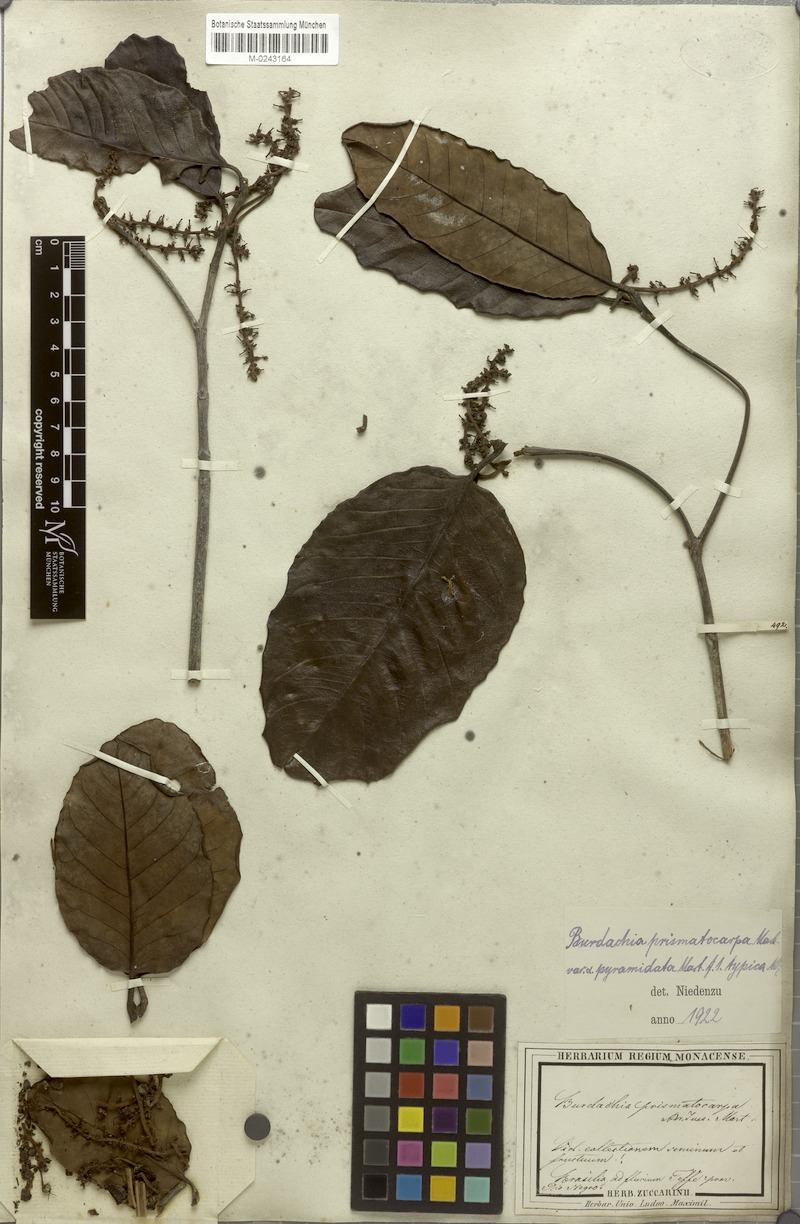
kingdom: Plantae
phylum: Tracheophyta
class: Magnoliopsida
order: Malpighiales
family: Malpighiaceae
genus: Burdachia
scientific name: Burdachia prismatocarpa
